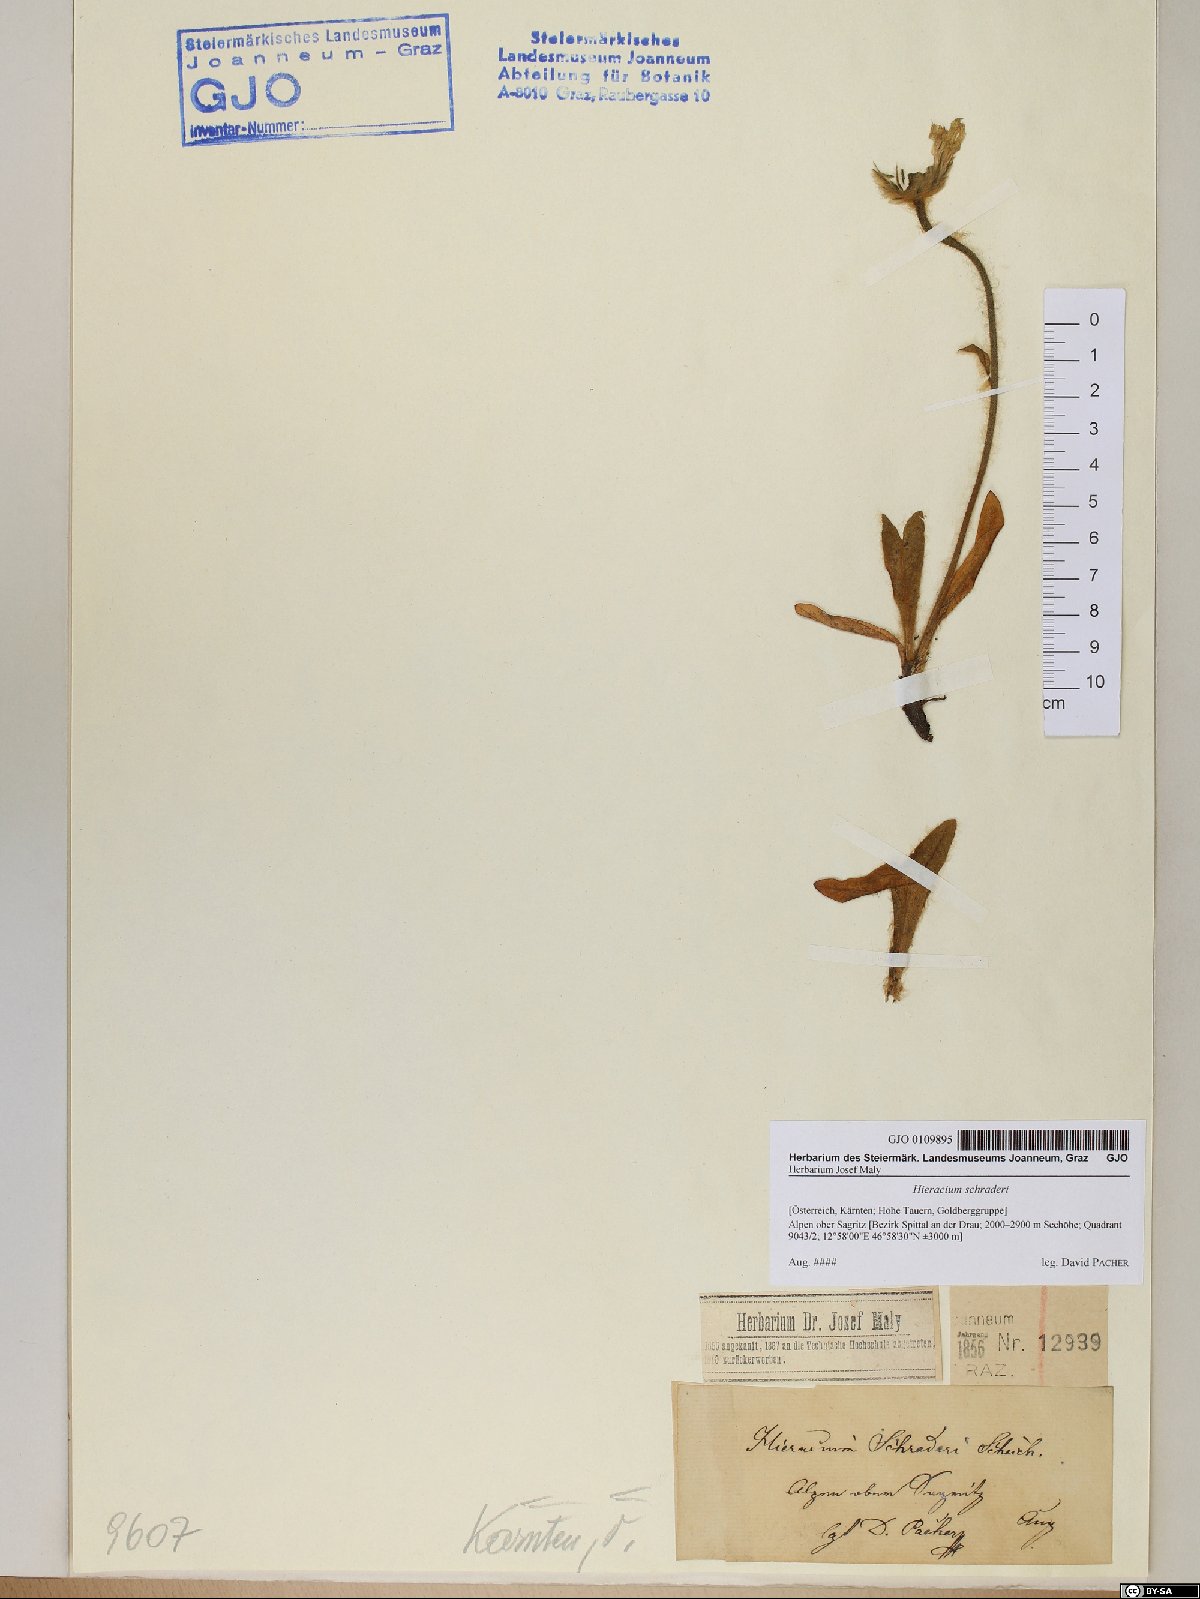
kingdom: Plantae
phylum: Tracheophyta
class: Magnoliopsida
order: Asterales
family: Asteraceae
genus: Hieracium
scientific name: Hieracium schraderi
